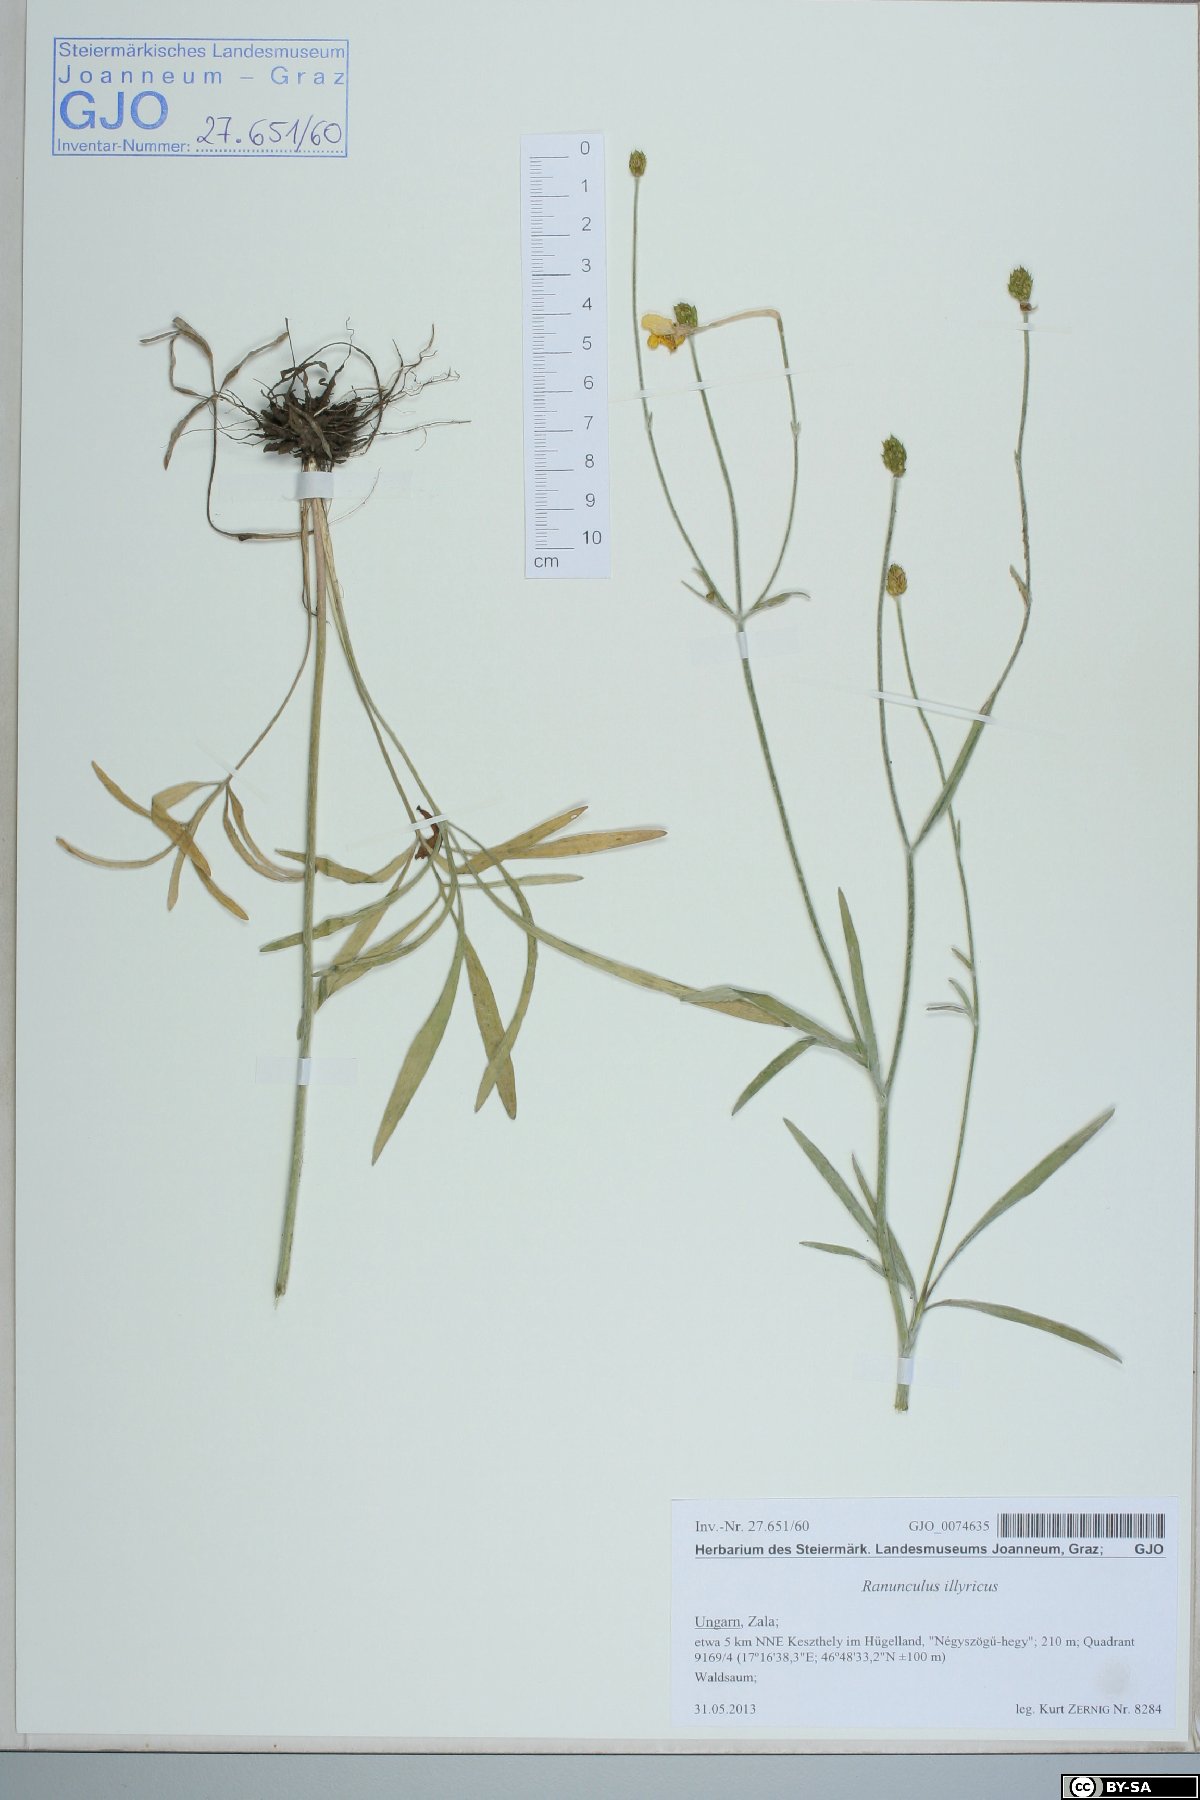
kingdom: Plantae
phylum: Tracheophyta
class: Magnoliopsida
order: Ranunculales
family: Ranunculaceae
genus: Ranunculus
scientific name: Ranunculus illyricus
